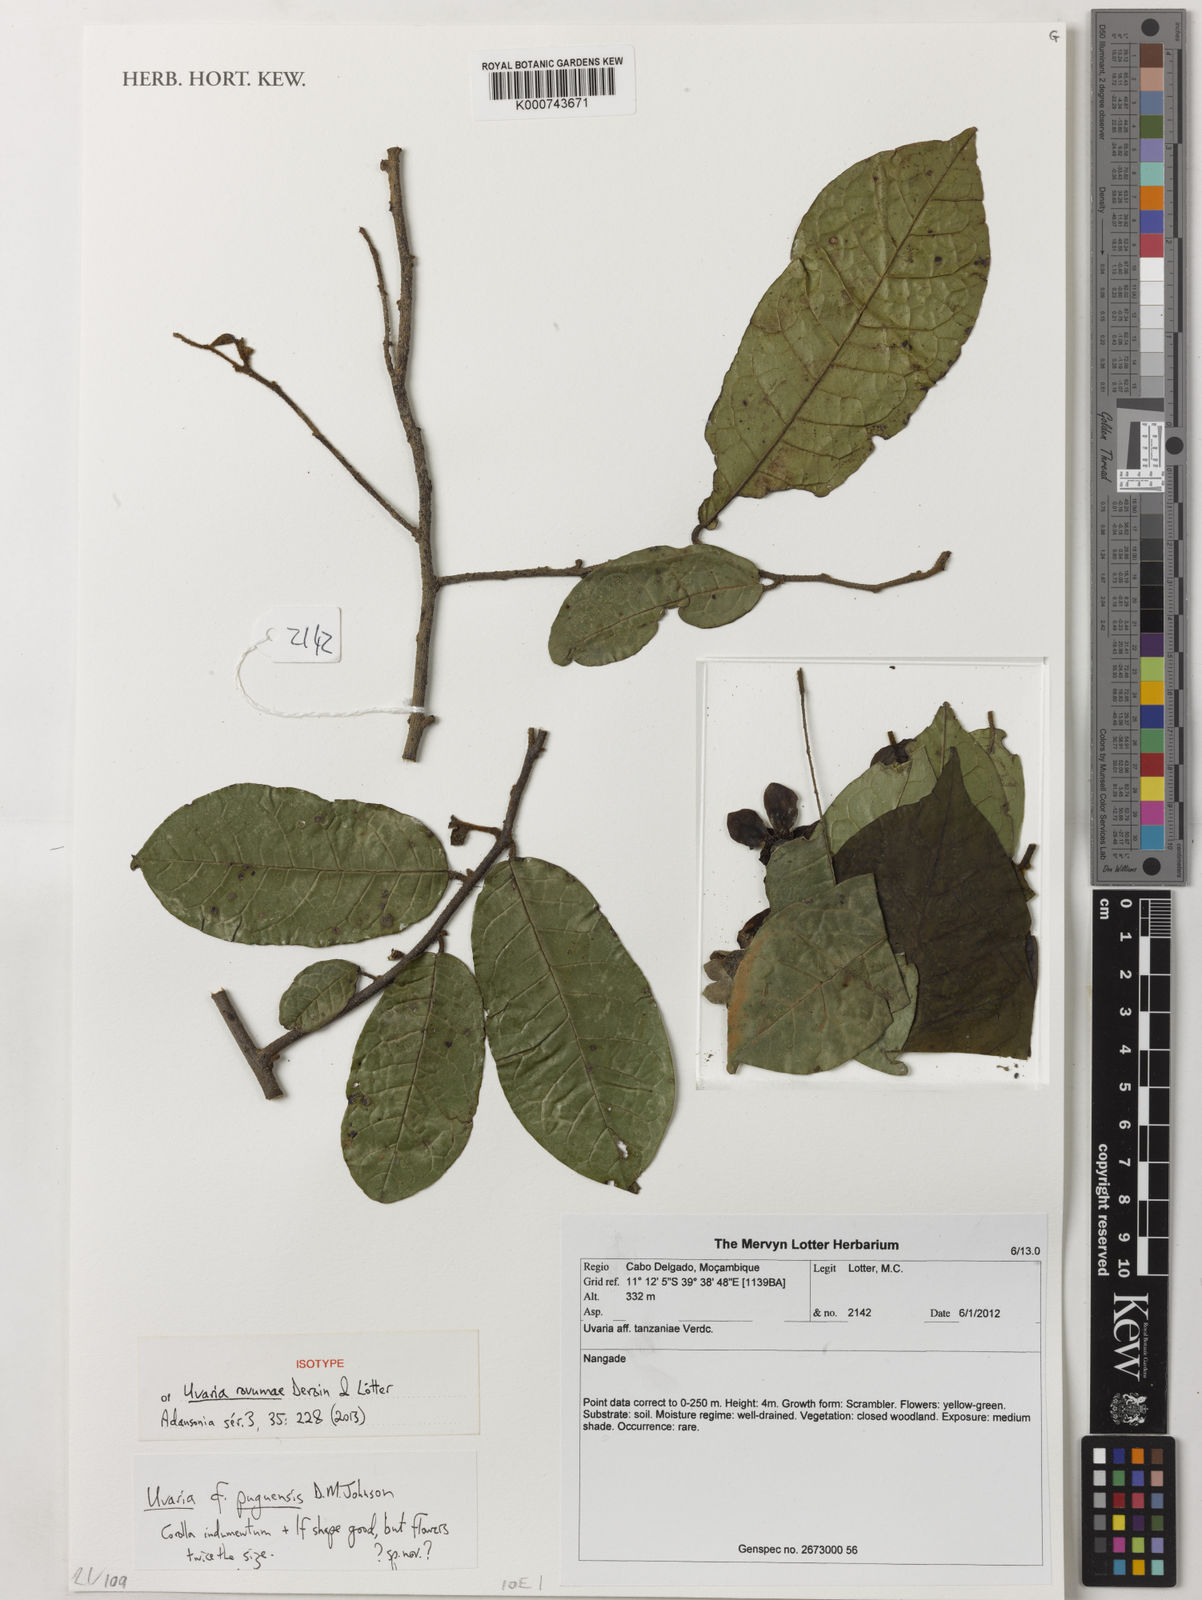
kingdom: Plantae
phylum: Tracheophyta
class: Magnoliopsida
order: Magnoliales
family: Annonaceae
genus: Uvaria
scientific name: Uvaria puguensis
